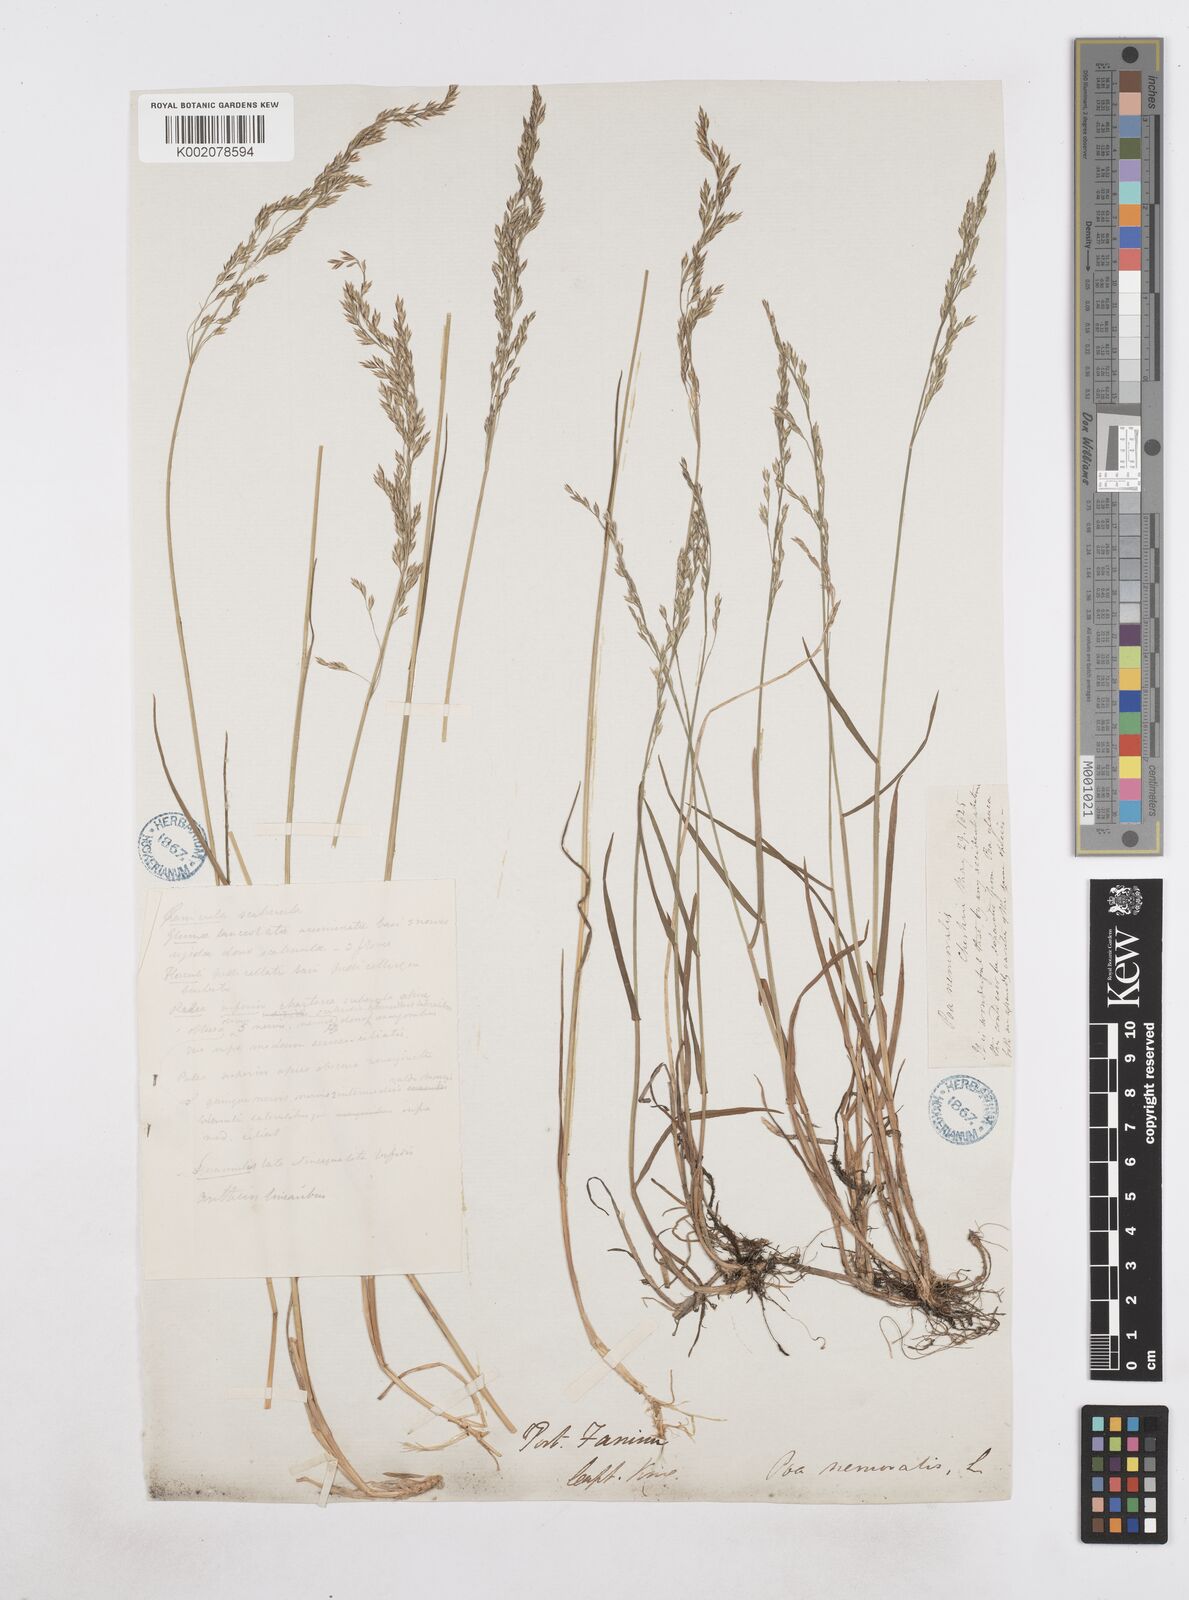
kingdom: Plantae
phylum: Tracheophyta
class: Liliopsida
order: Poales
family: Poaceae
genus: Poa
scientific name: Poa nemoralis
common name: Wood bluegrass
